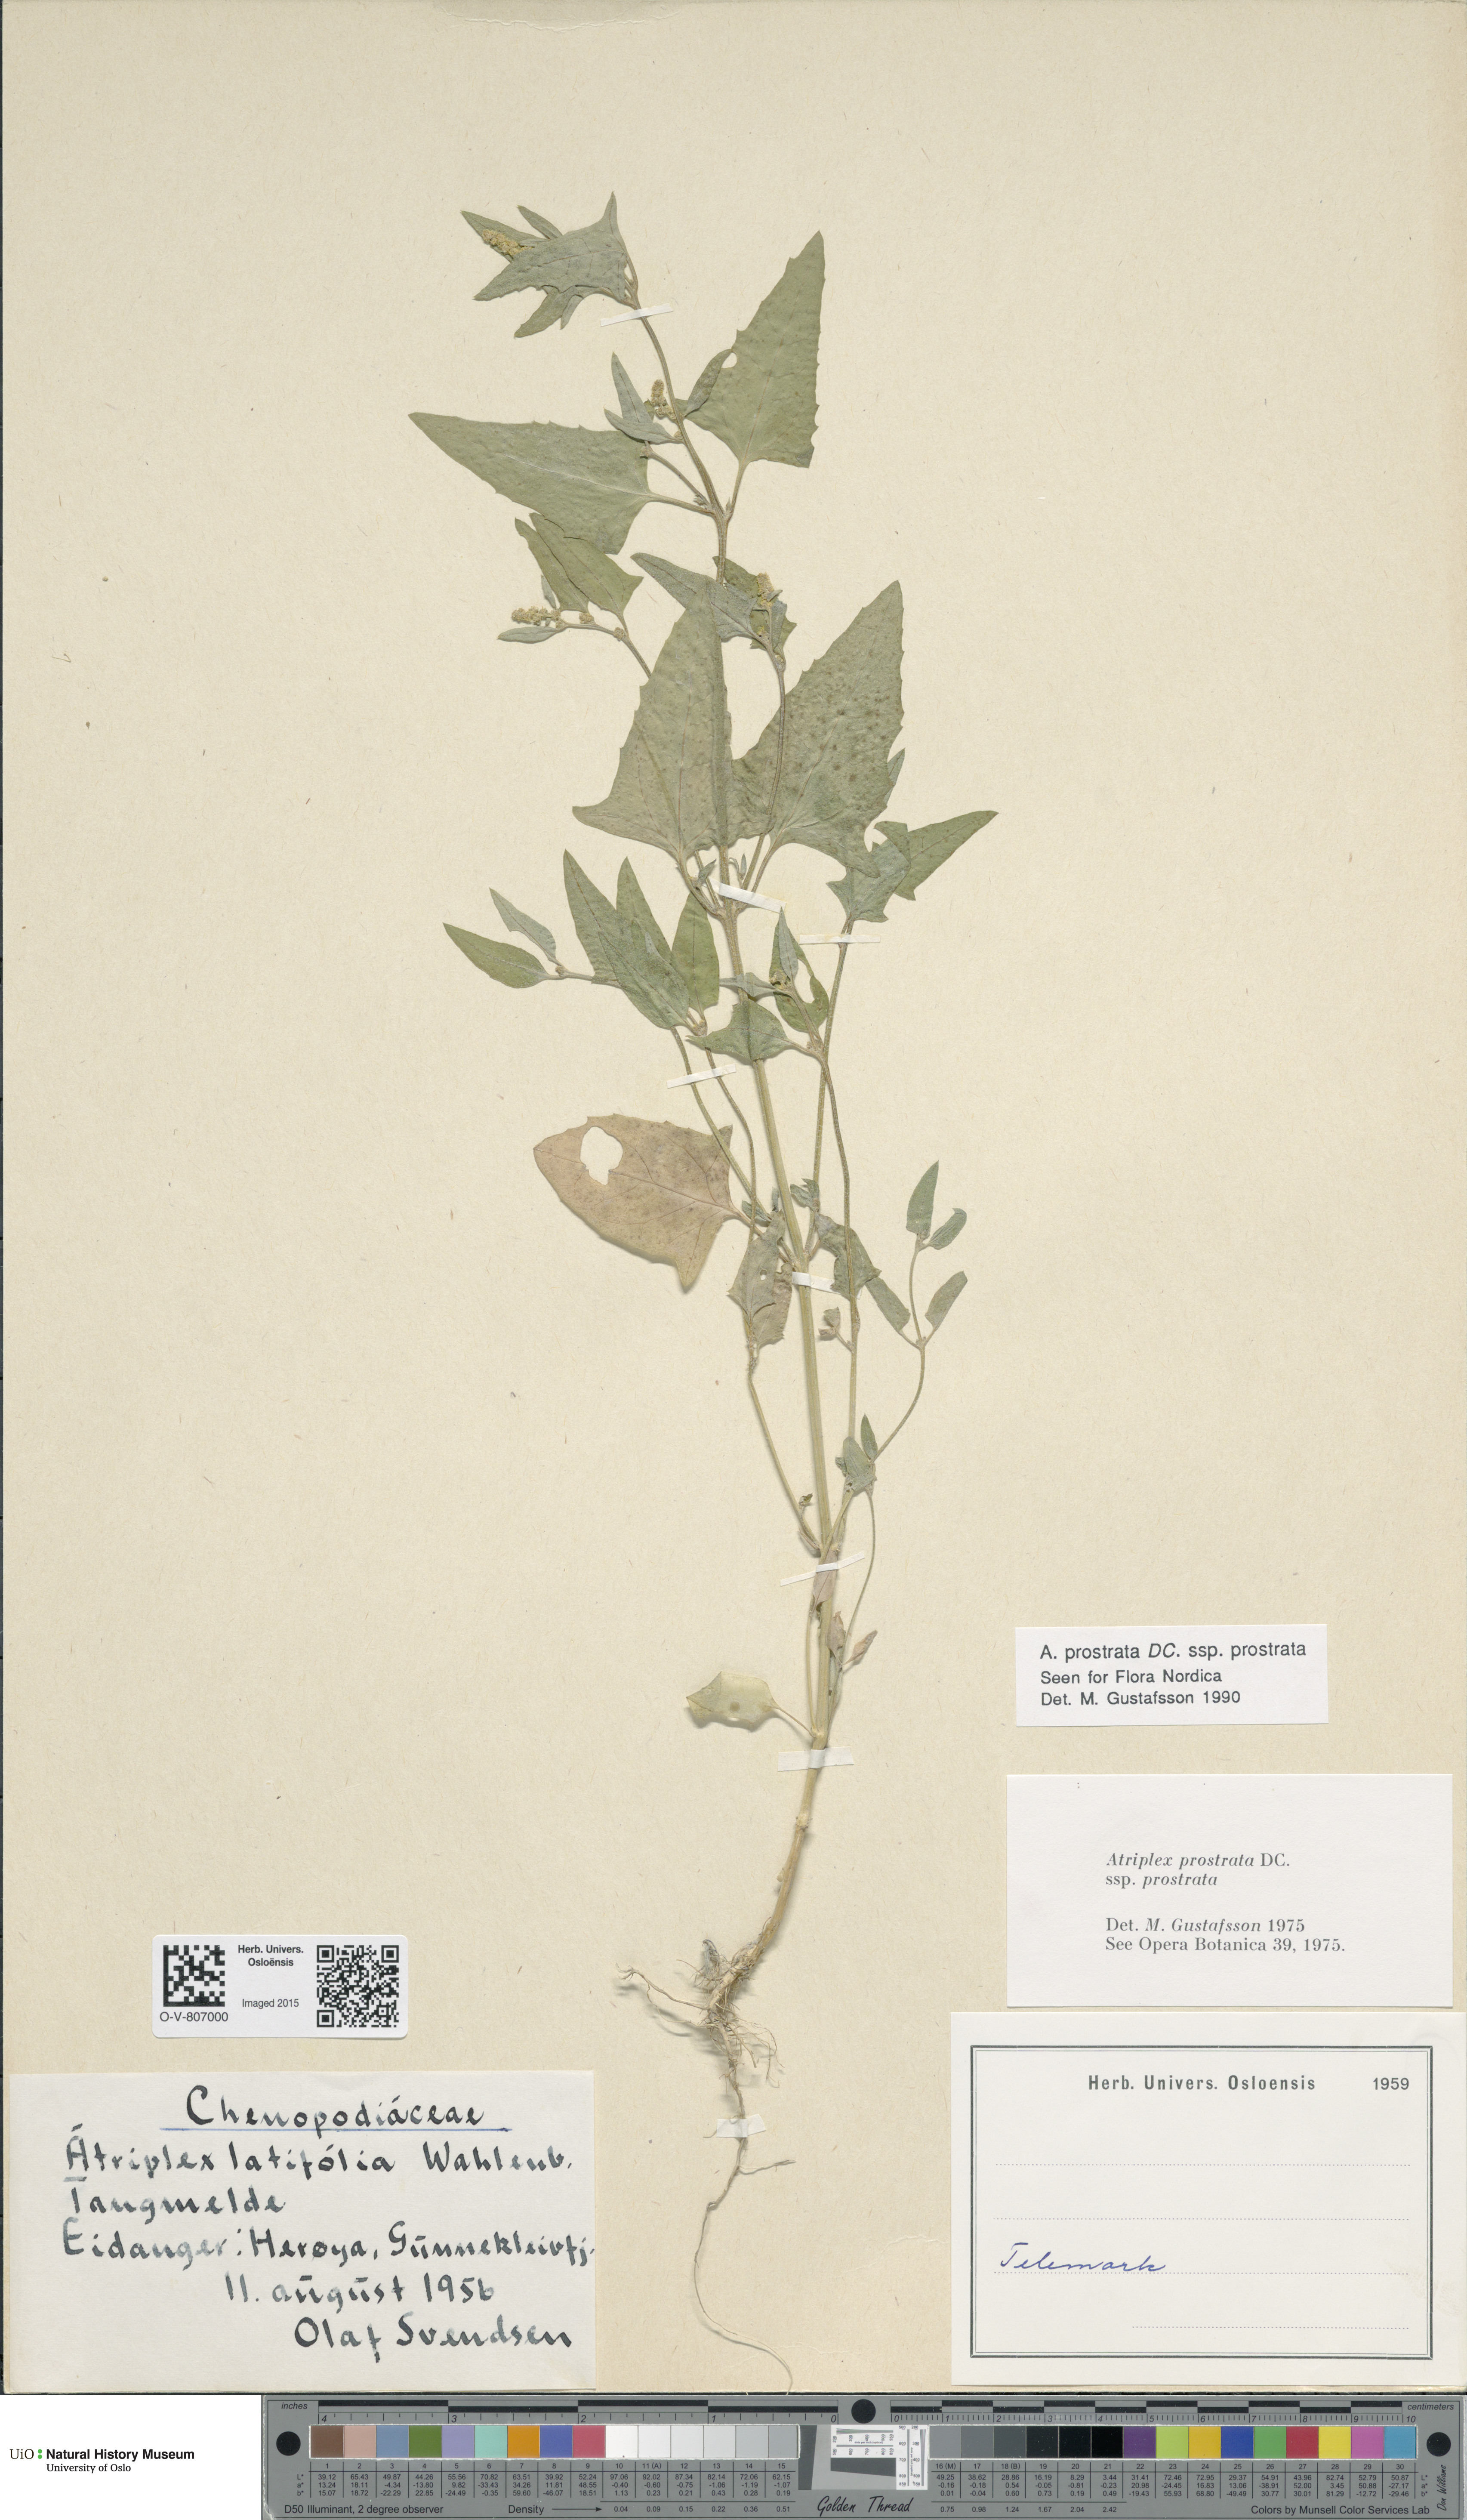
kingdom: Plantae
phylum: Tracheophyta
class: Magnoliopsida
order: Caryophyllales
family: Amaranthaceae
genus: Atriplex
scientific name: Atriplex prostrata
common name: Spear-leaved orache
